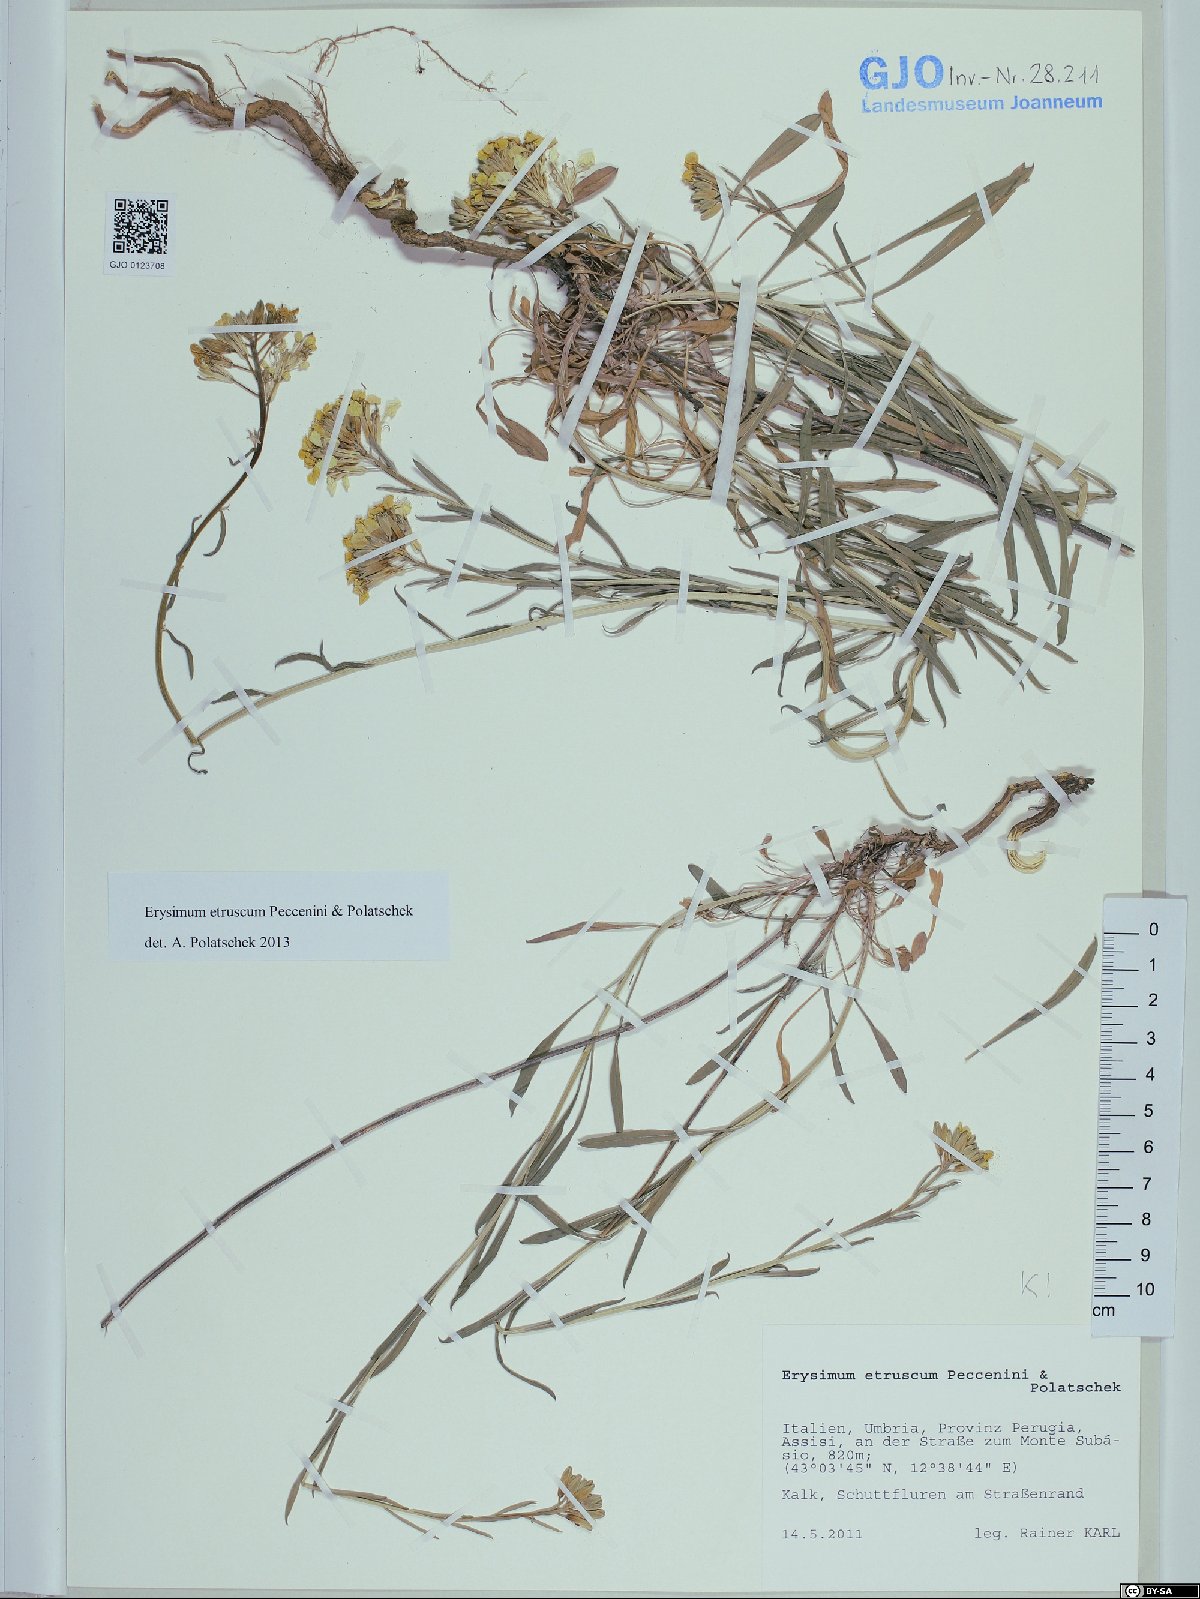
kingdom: Plantae
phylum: Tracheophyta
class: Magnoliopsida
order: Brassicales
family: Brassicaceae
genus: Erysimum
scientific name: Erysimum pseudorhaeticum
